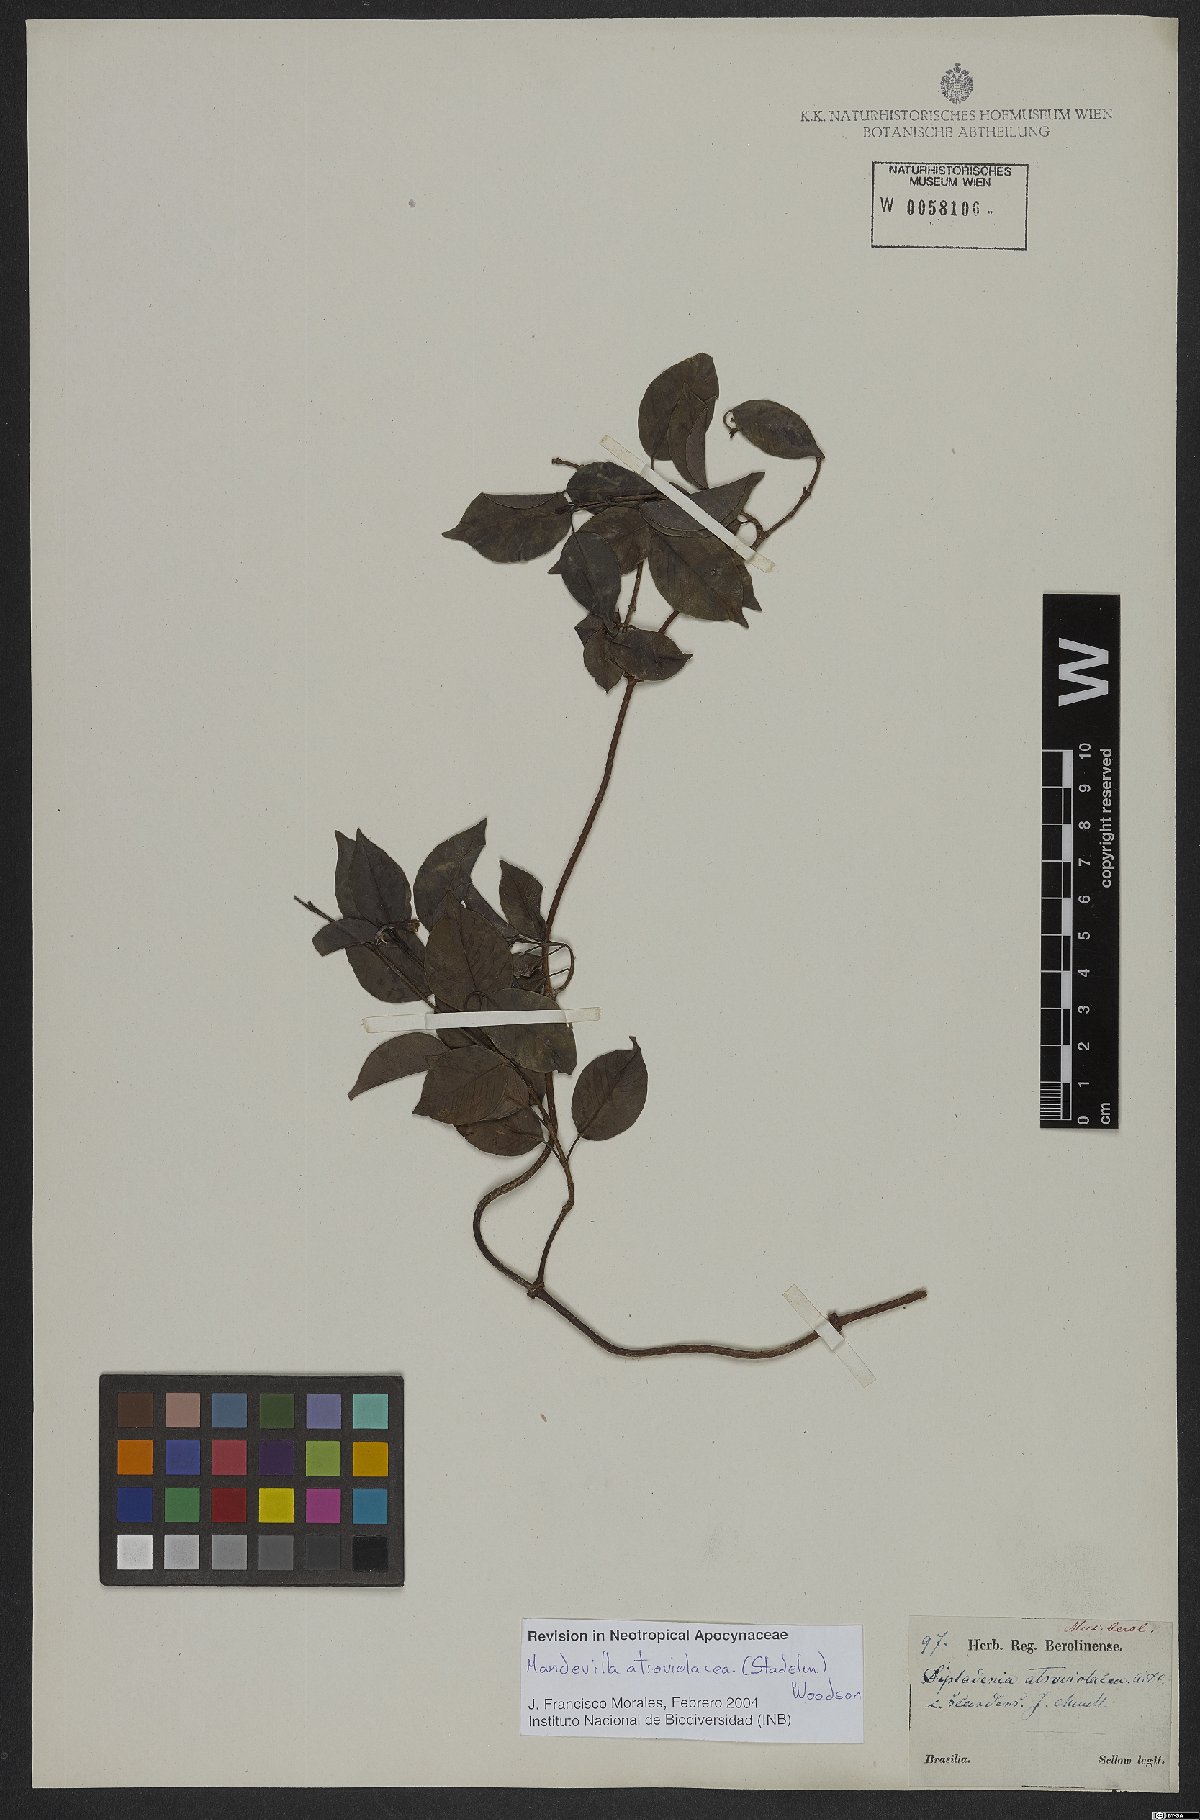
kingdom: Plantae
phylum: Tracheophyta
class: Magnoliopsida
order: Gentianales
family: Apocynaceae
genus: Mandevilla
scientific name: Mandevilla atroviolacea
